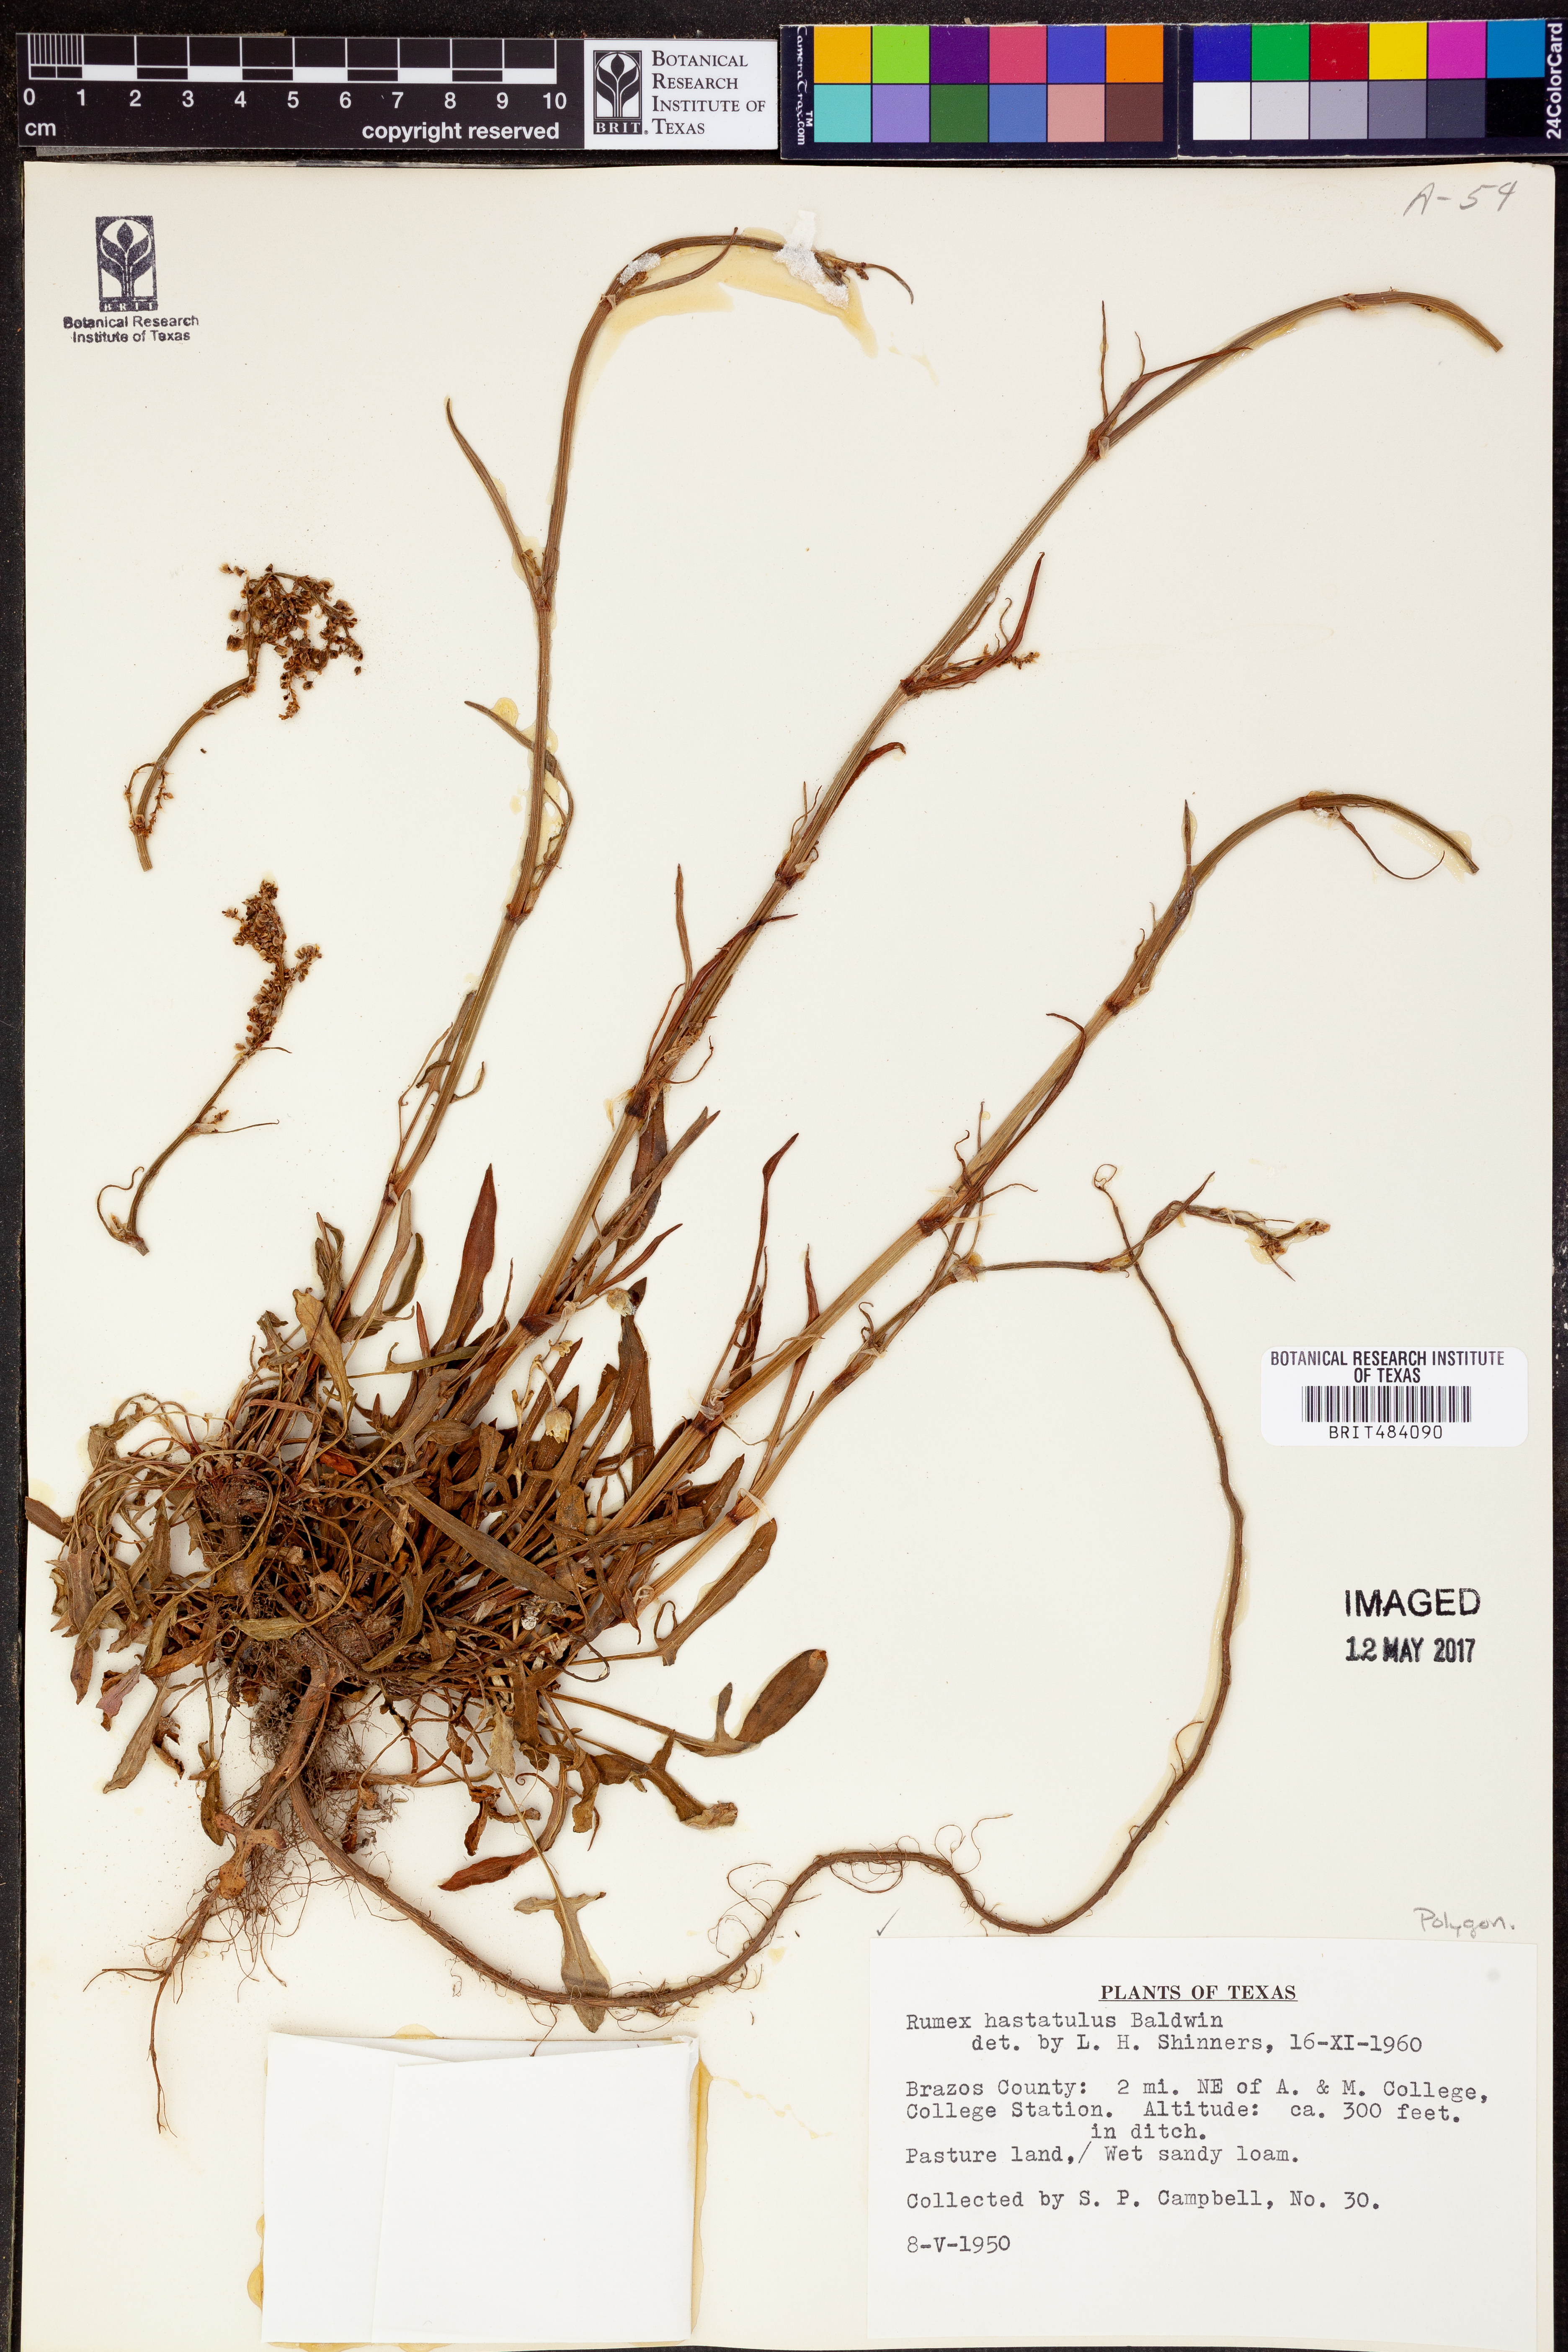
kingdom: Plantae
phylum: Tracheophyta
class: Magnoliopsida
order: Caryophyllales
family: Polygonaceae
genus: Rumex
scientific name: Rumex hastatulus
